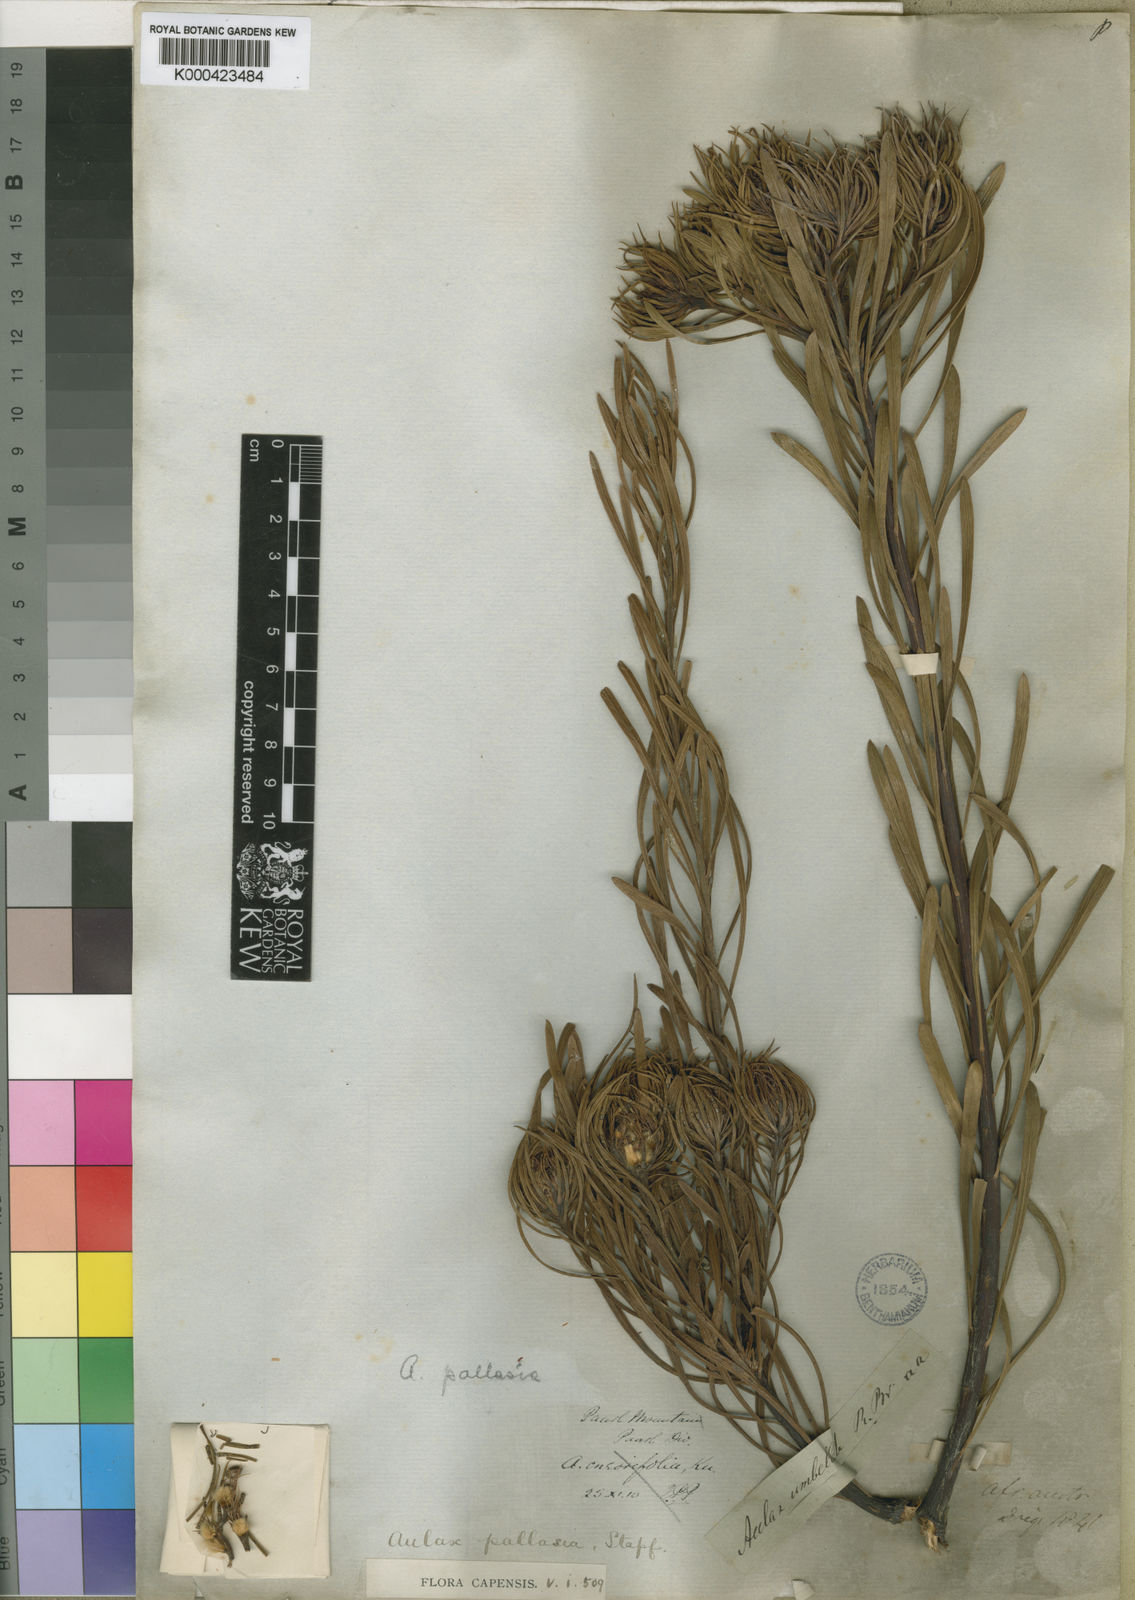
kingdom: Plantae
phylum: Tracheophyta
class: Magnoliopsida
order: Proteales
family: Proteaceae
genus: Aulax
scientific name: Aulax pallasia
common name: Needle-leaf featherbush
